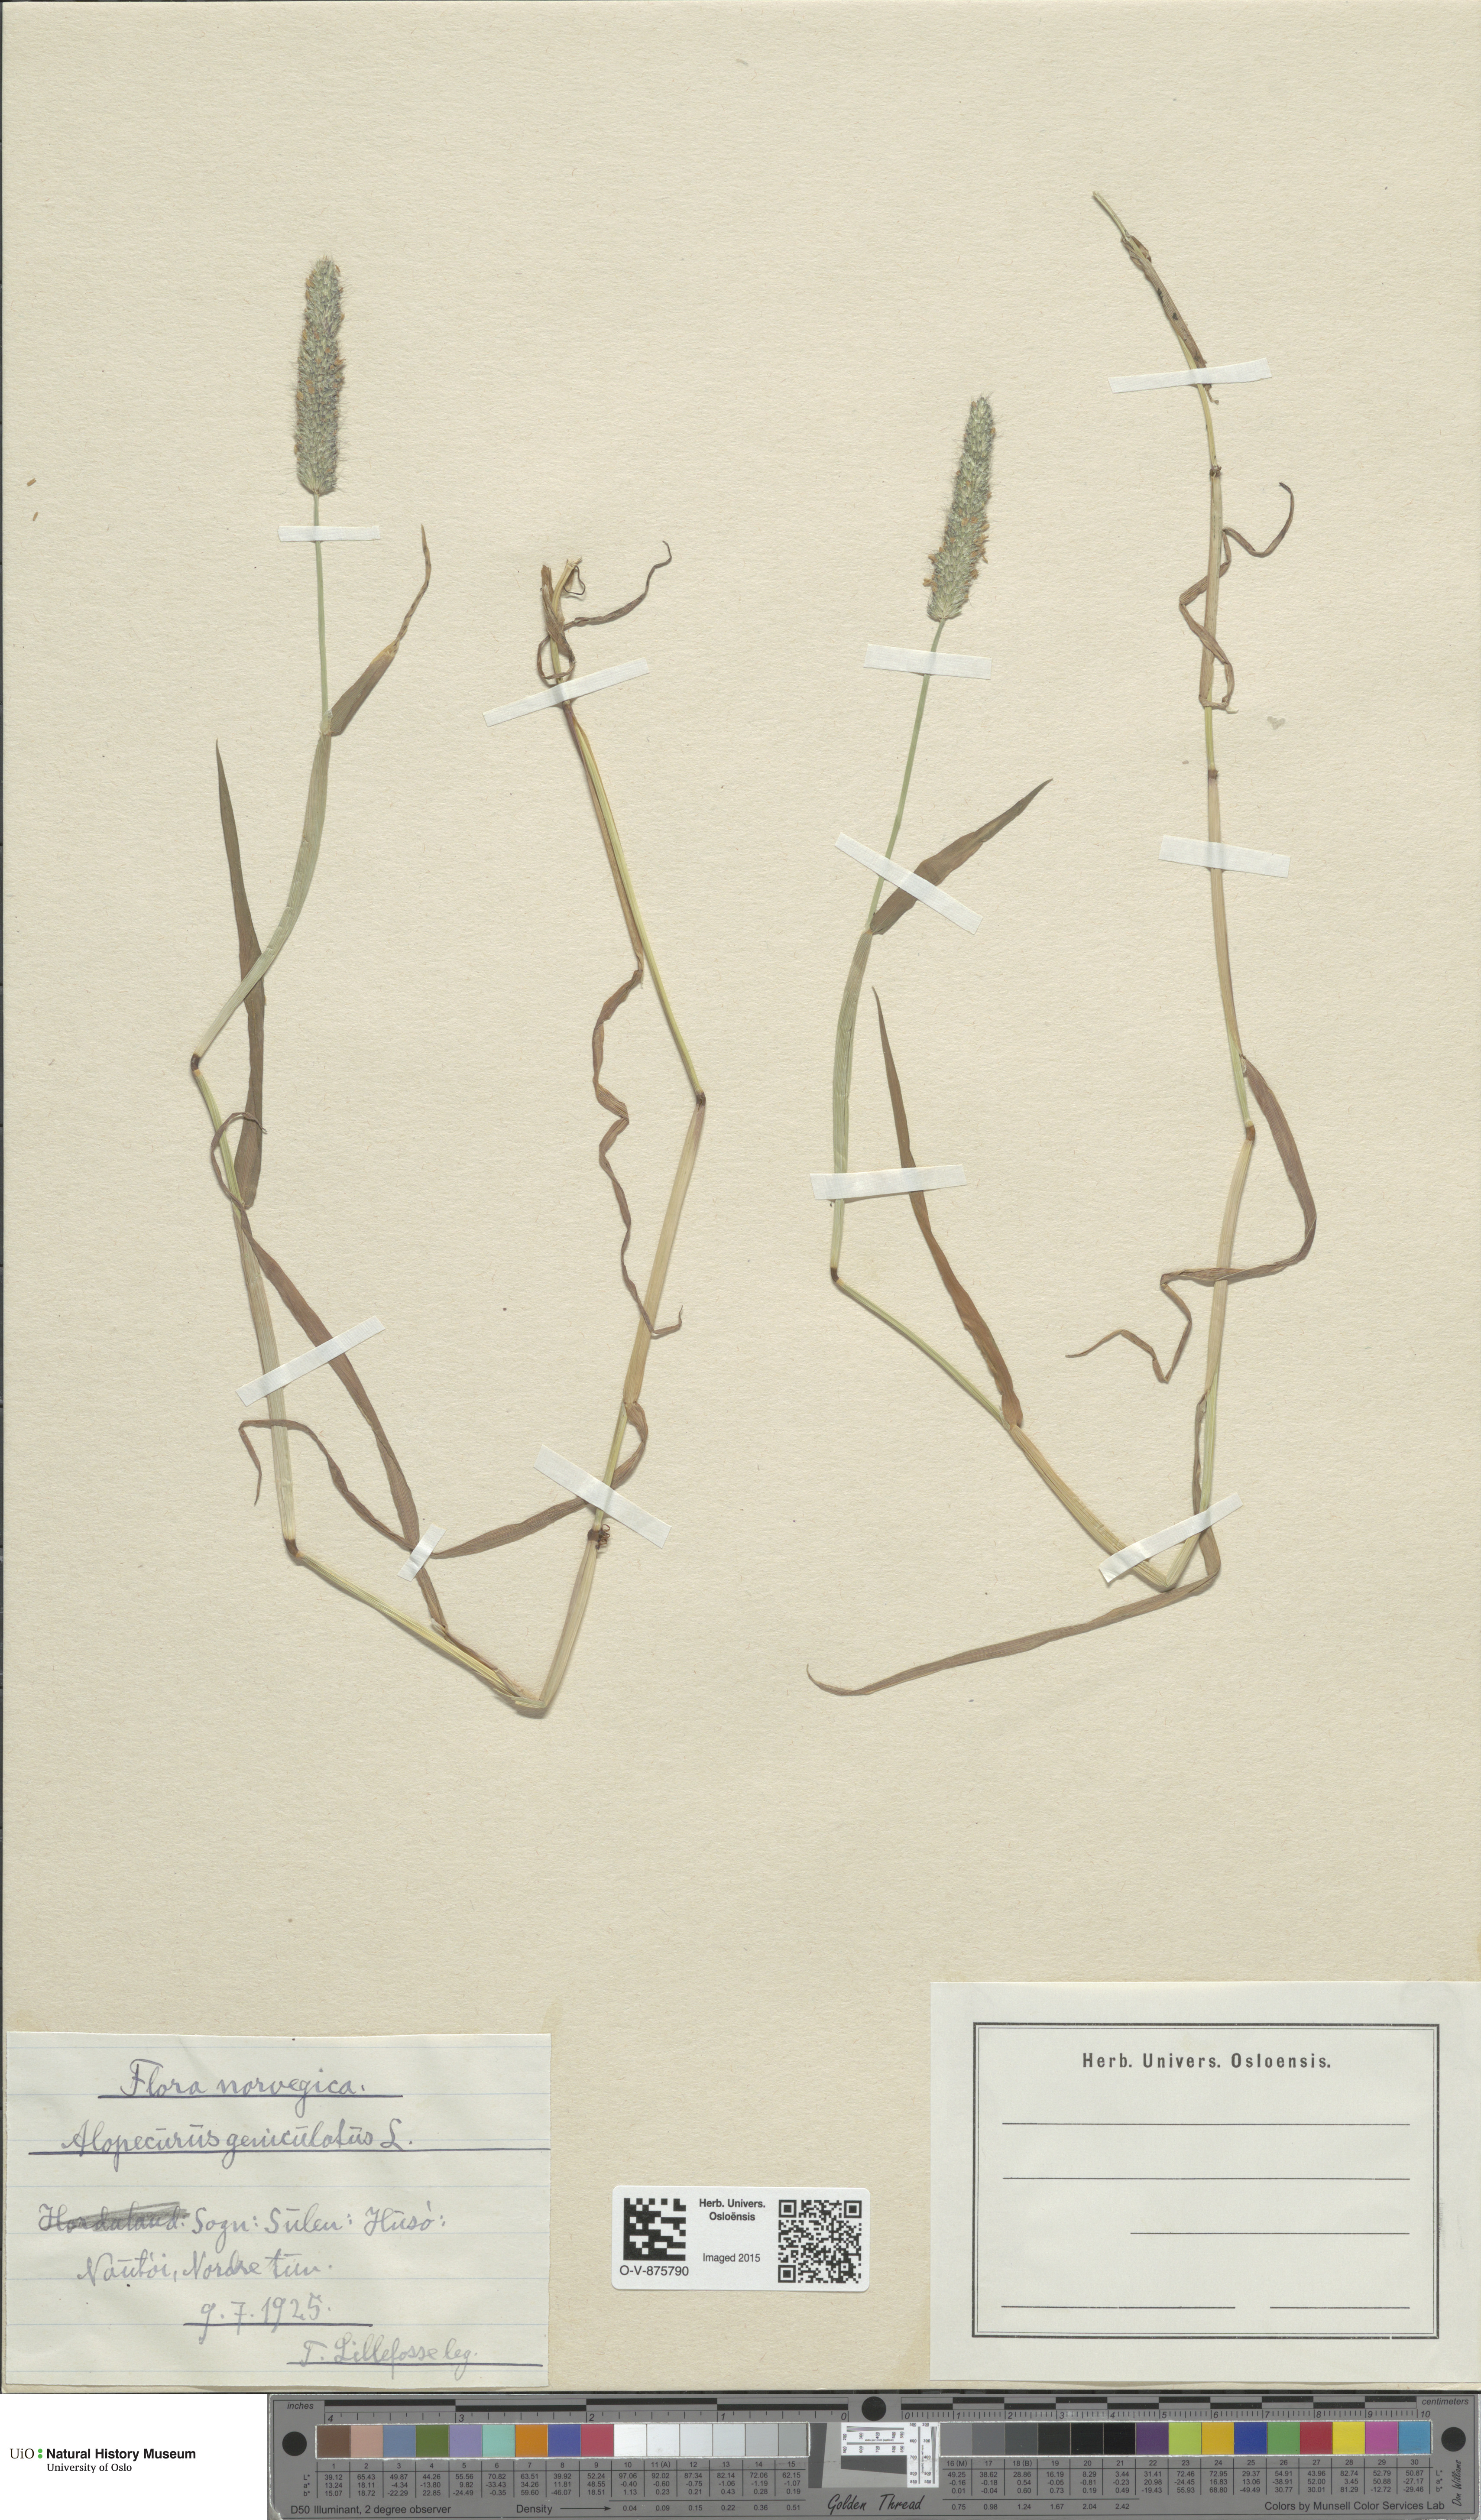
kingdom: Plantae
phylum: Tracheophyta
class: Liliopsida
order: Poales
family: Poaceae
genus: Alopecurus
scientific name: Alopecurus geniculatus
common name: Water foxtail
